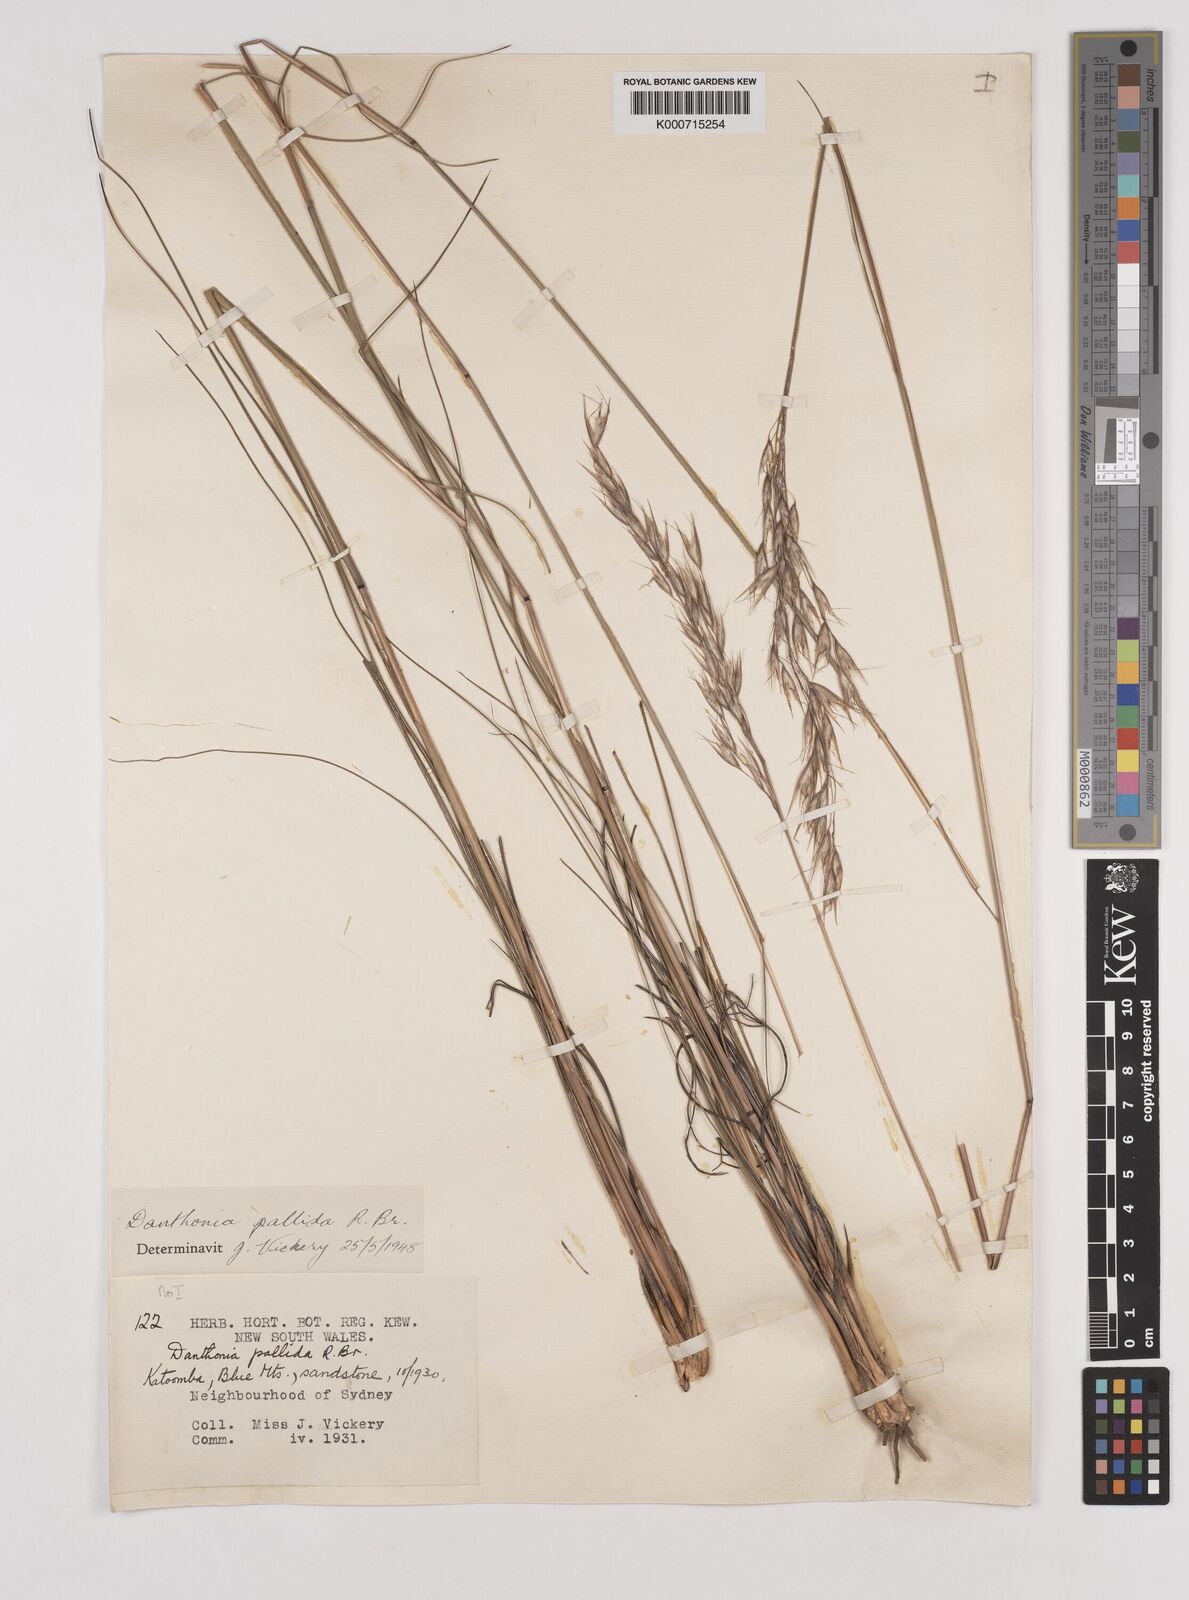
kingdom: Plantae
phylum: Tracheophyta
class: Liliopsida
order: Poales
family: Poaceae
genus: Rytidosperma
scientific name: Rytidosperma
